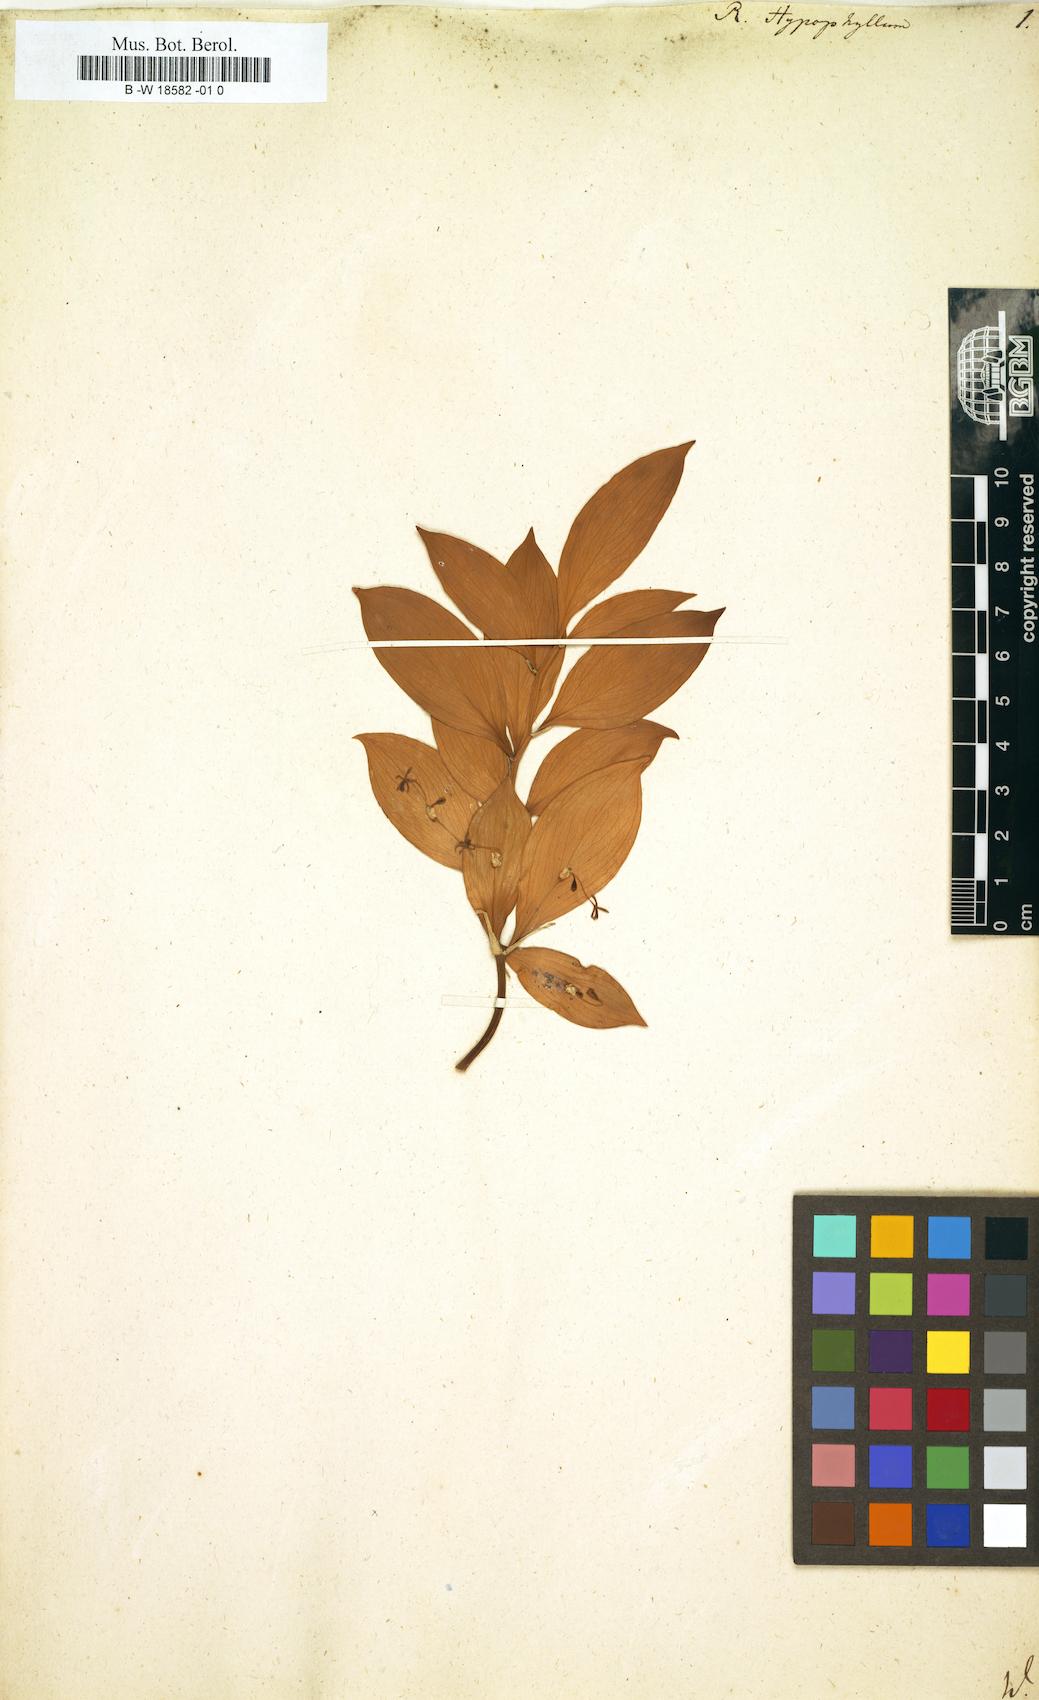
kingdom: Plantae
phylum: Tracheophyta
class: Liliopsida
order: Asparagales
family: Asparagaceae
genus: Ruscus
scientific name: Ruscus hypophyllum
